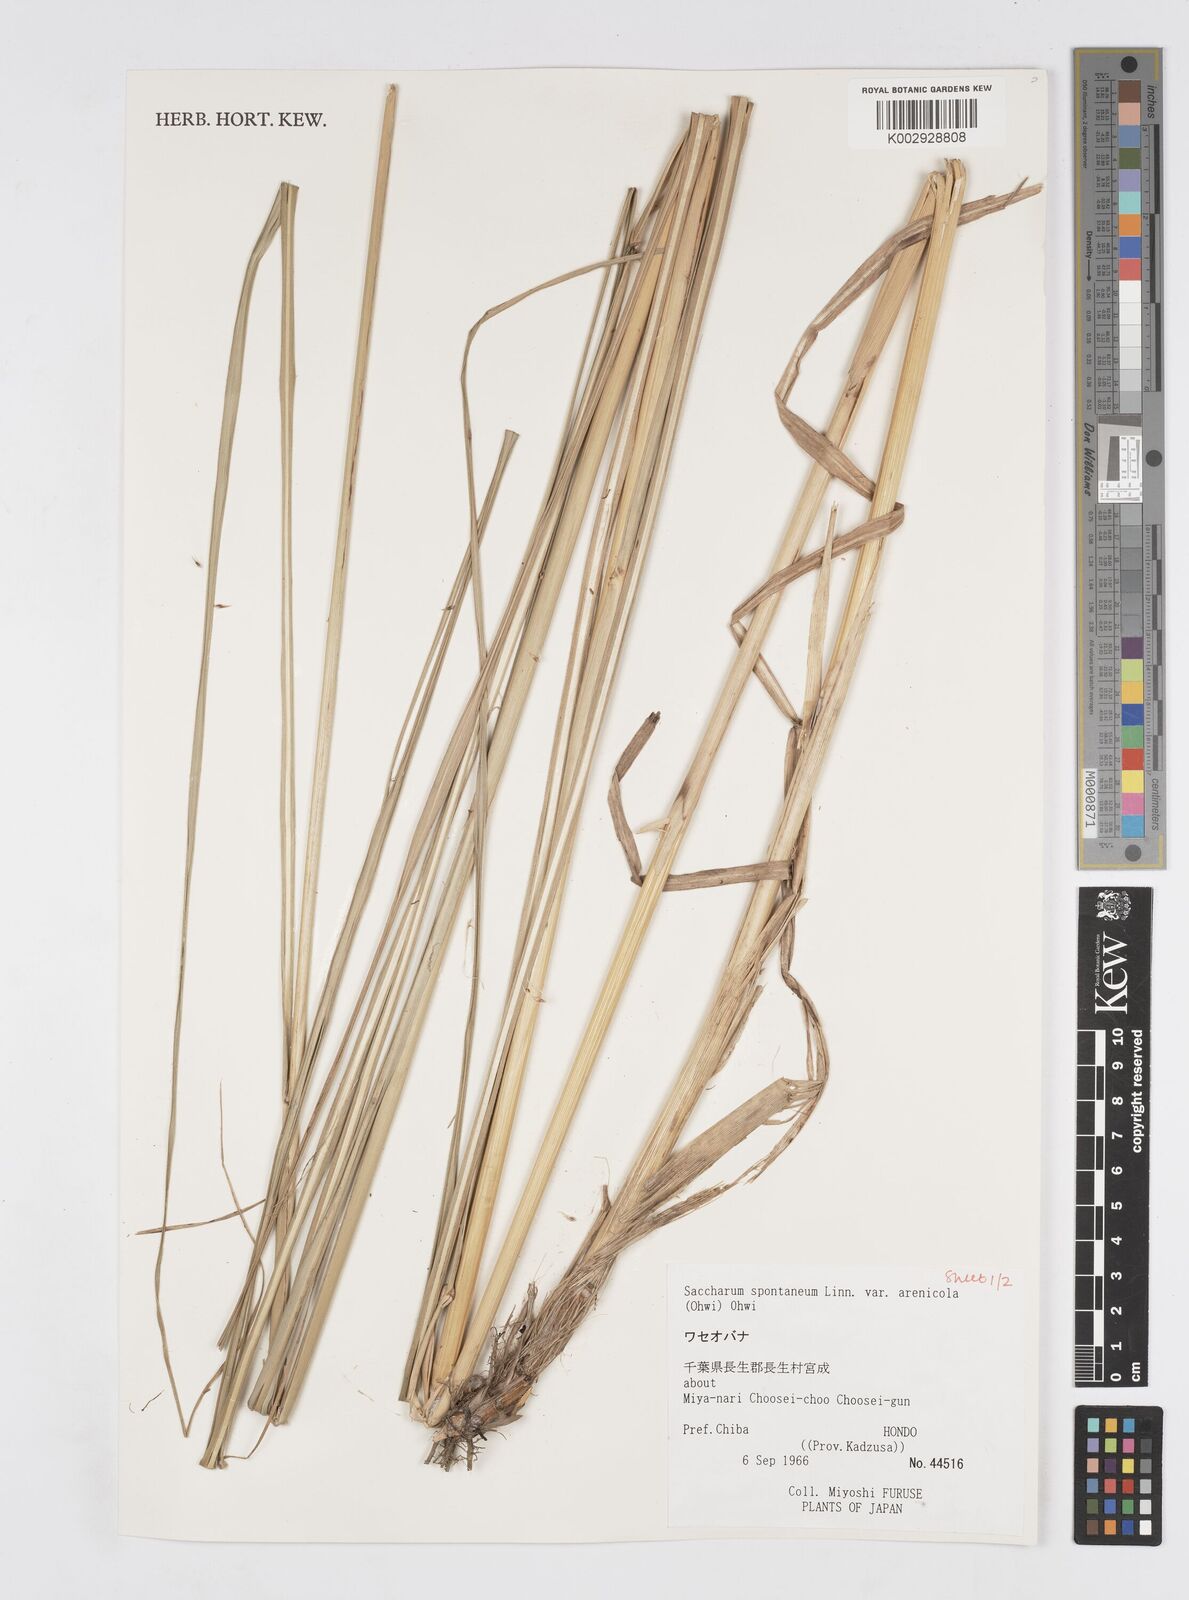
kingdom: Plantae
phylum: Tracheophyta
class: Liliopsida
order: Poales
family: Poaceae
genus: Saccharum
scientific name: Saccharum spontaneum
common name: Wild sugarcane
